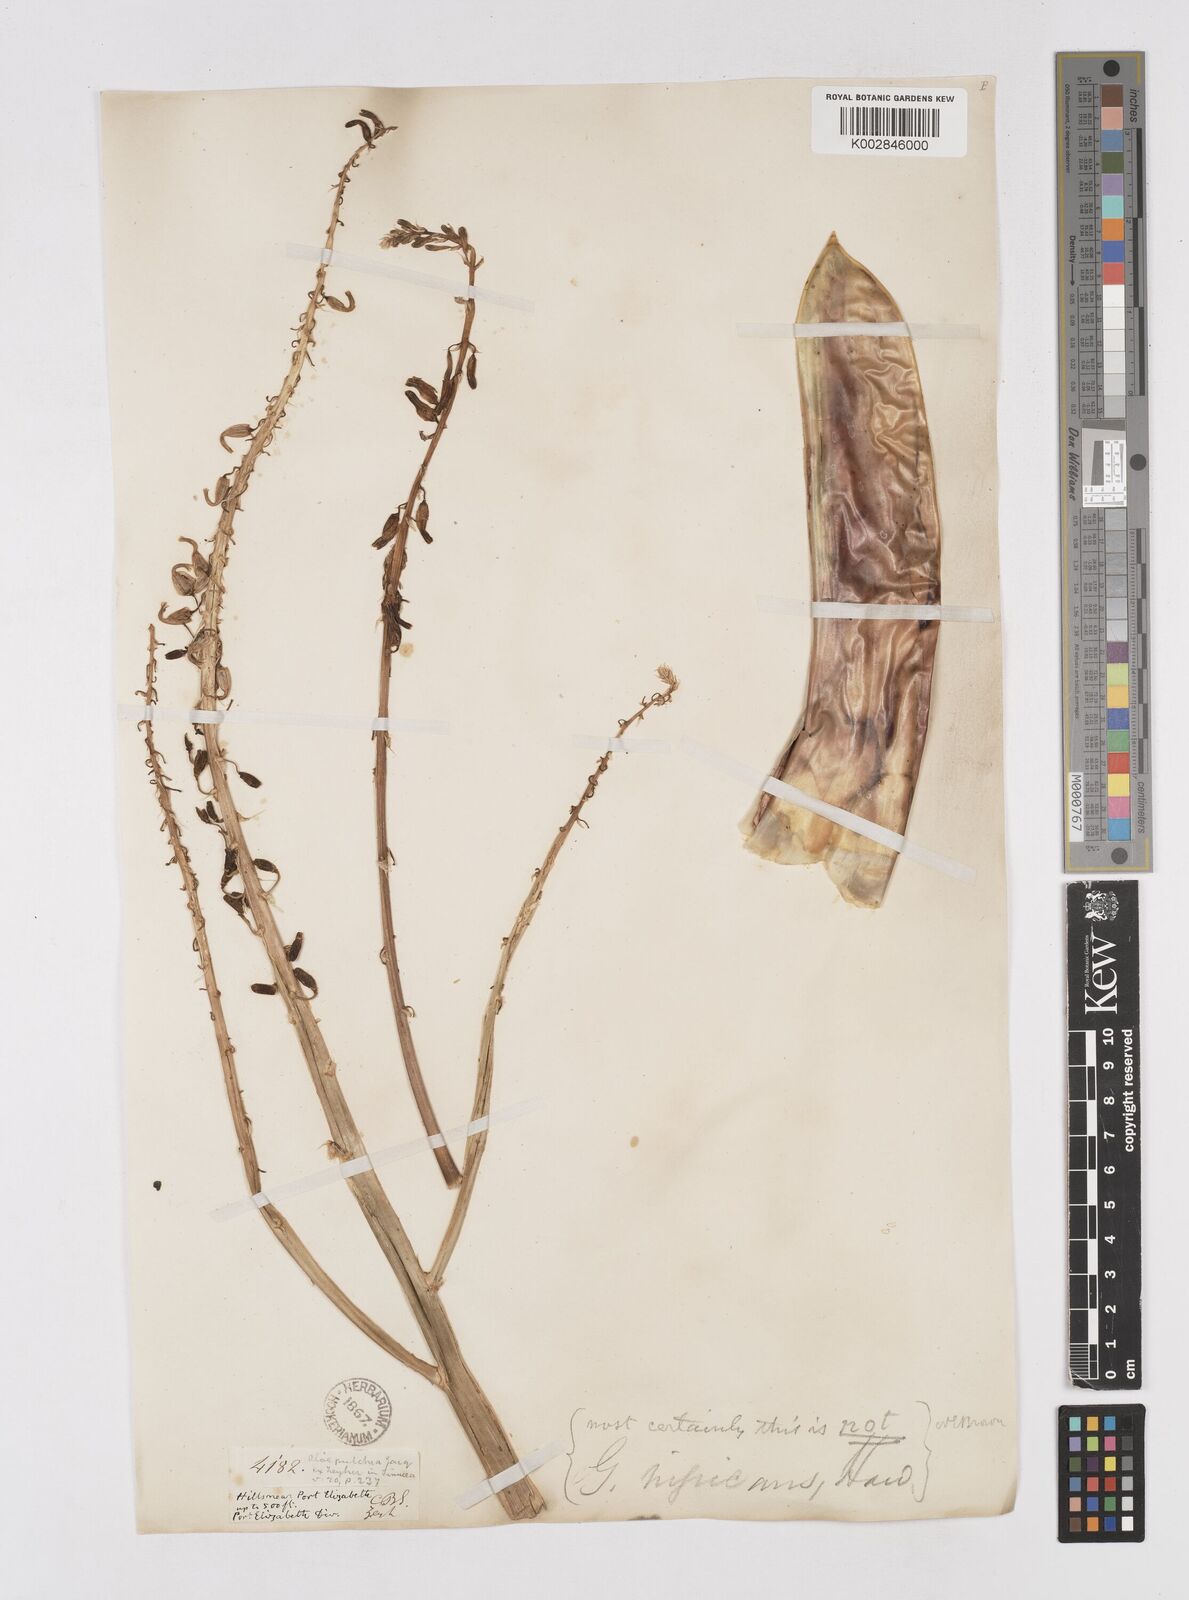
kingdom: Plantae
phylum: Tracheophyta
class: Liliopsida
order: Asparagales
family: Asphodelaceae
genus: Gasteria
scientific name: Gasteria disticha
